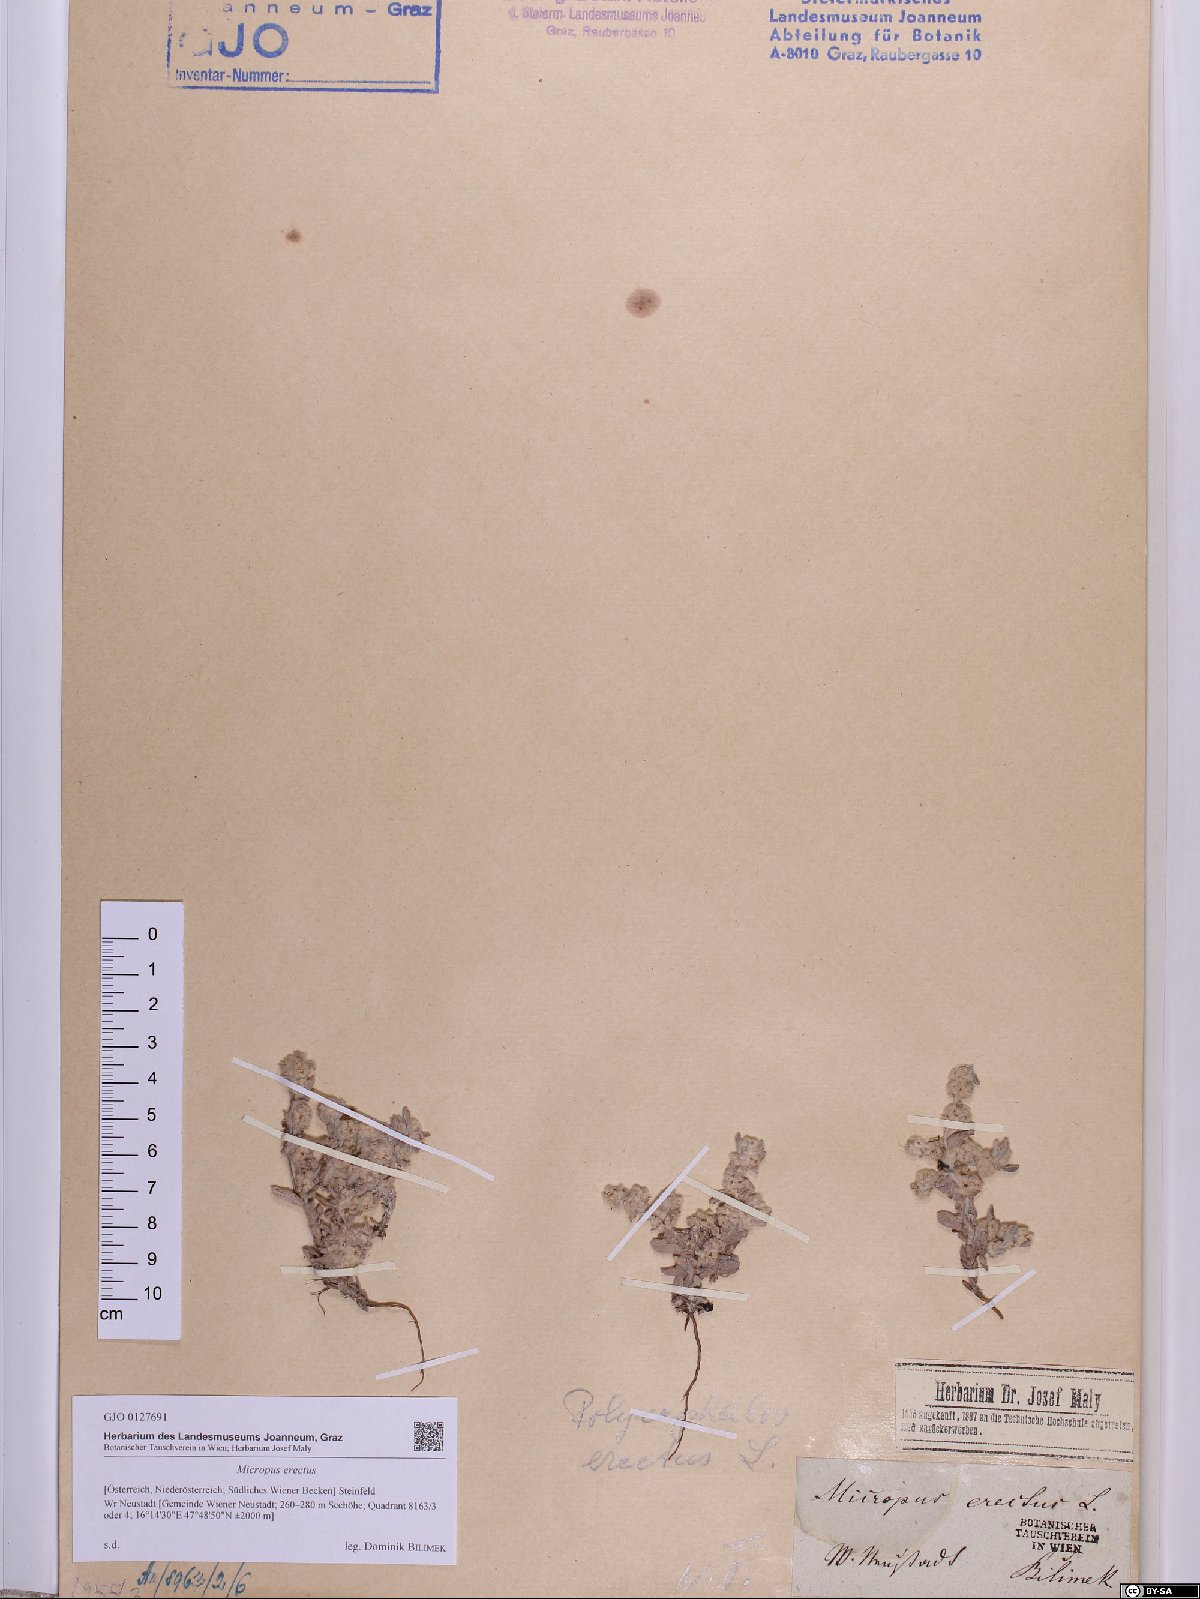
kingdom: Plantae
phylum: Tracheophyta
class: Magnoliopsida
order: Asterales
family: Asteraceae
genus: Bombycilaena
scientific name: Bombycilaena erecta
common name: Micropus
